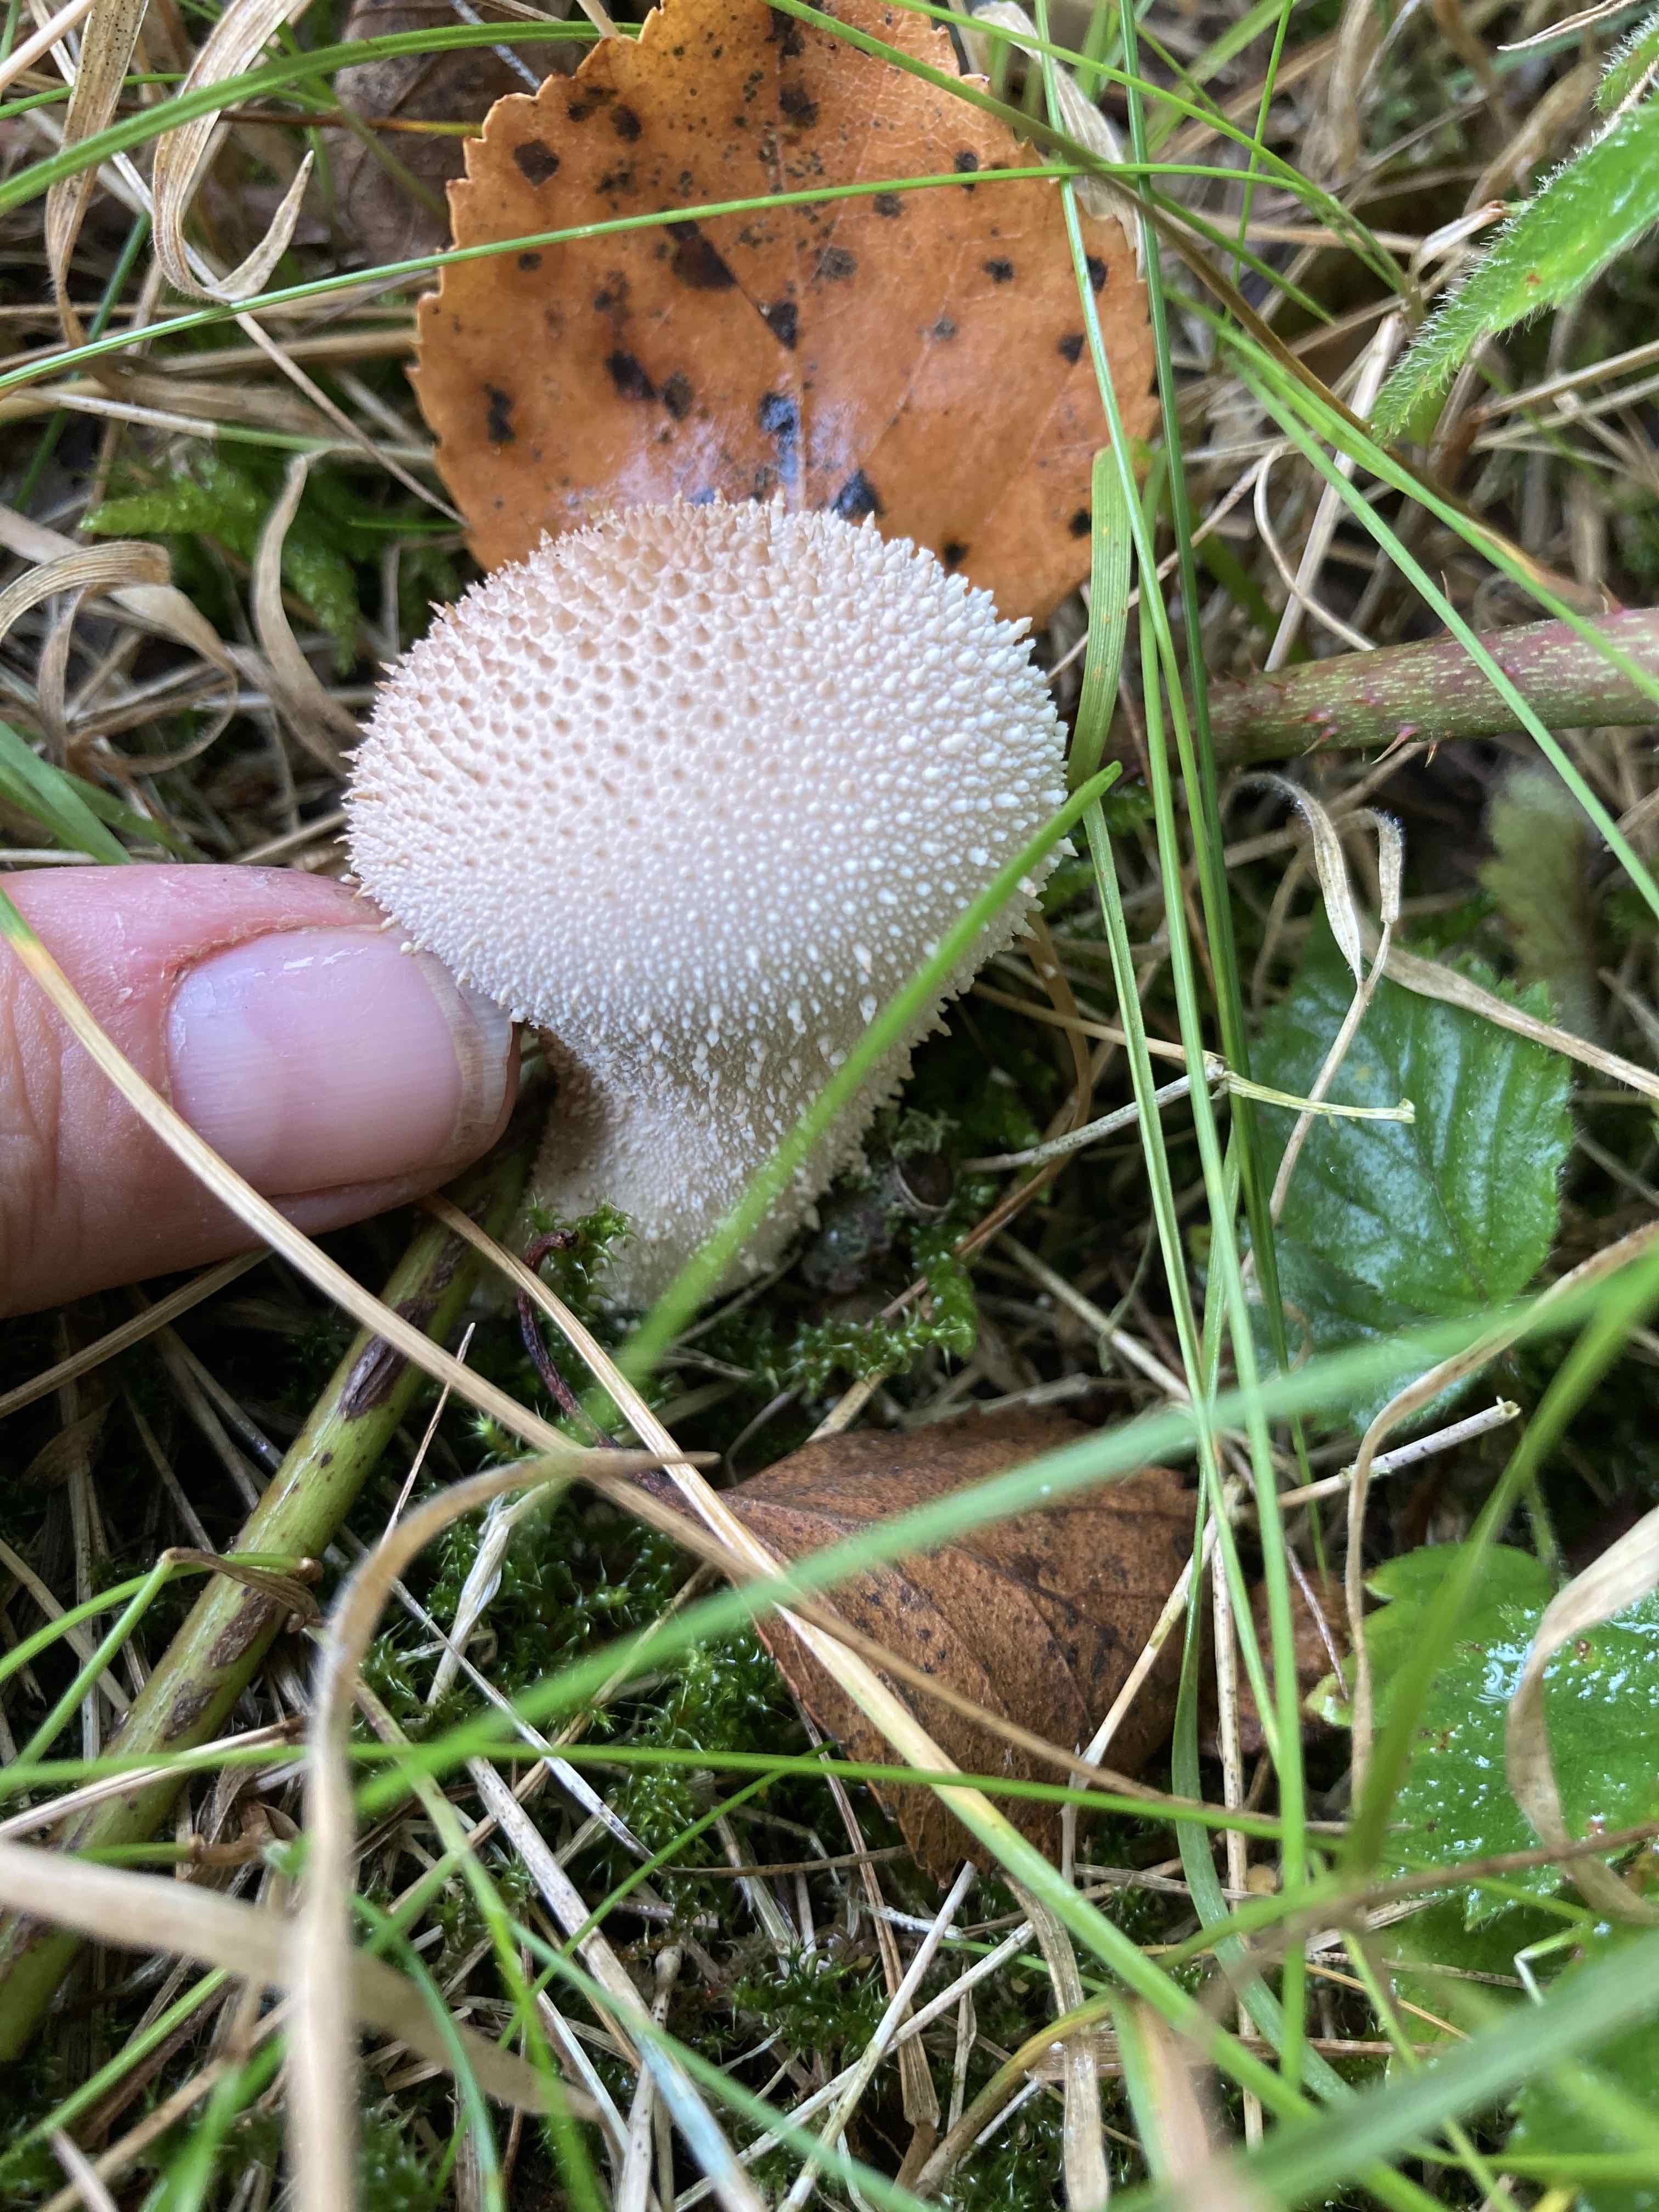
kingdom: Fungi
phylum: Basidiomycota
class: Agaricomycetes
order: Agaricales
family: Lycoperdaceae
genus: Lycoperdon
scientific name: Lycoperdon perlatum
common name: krystal-støvbold
